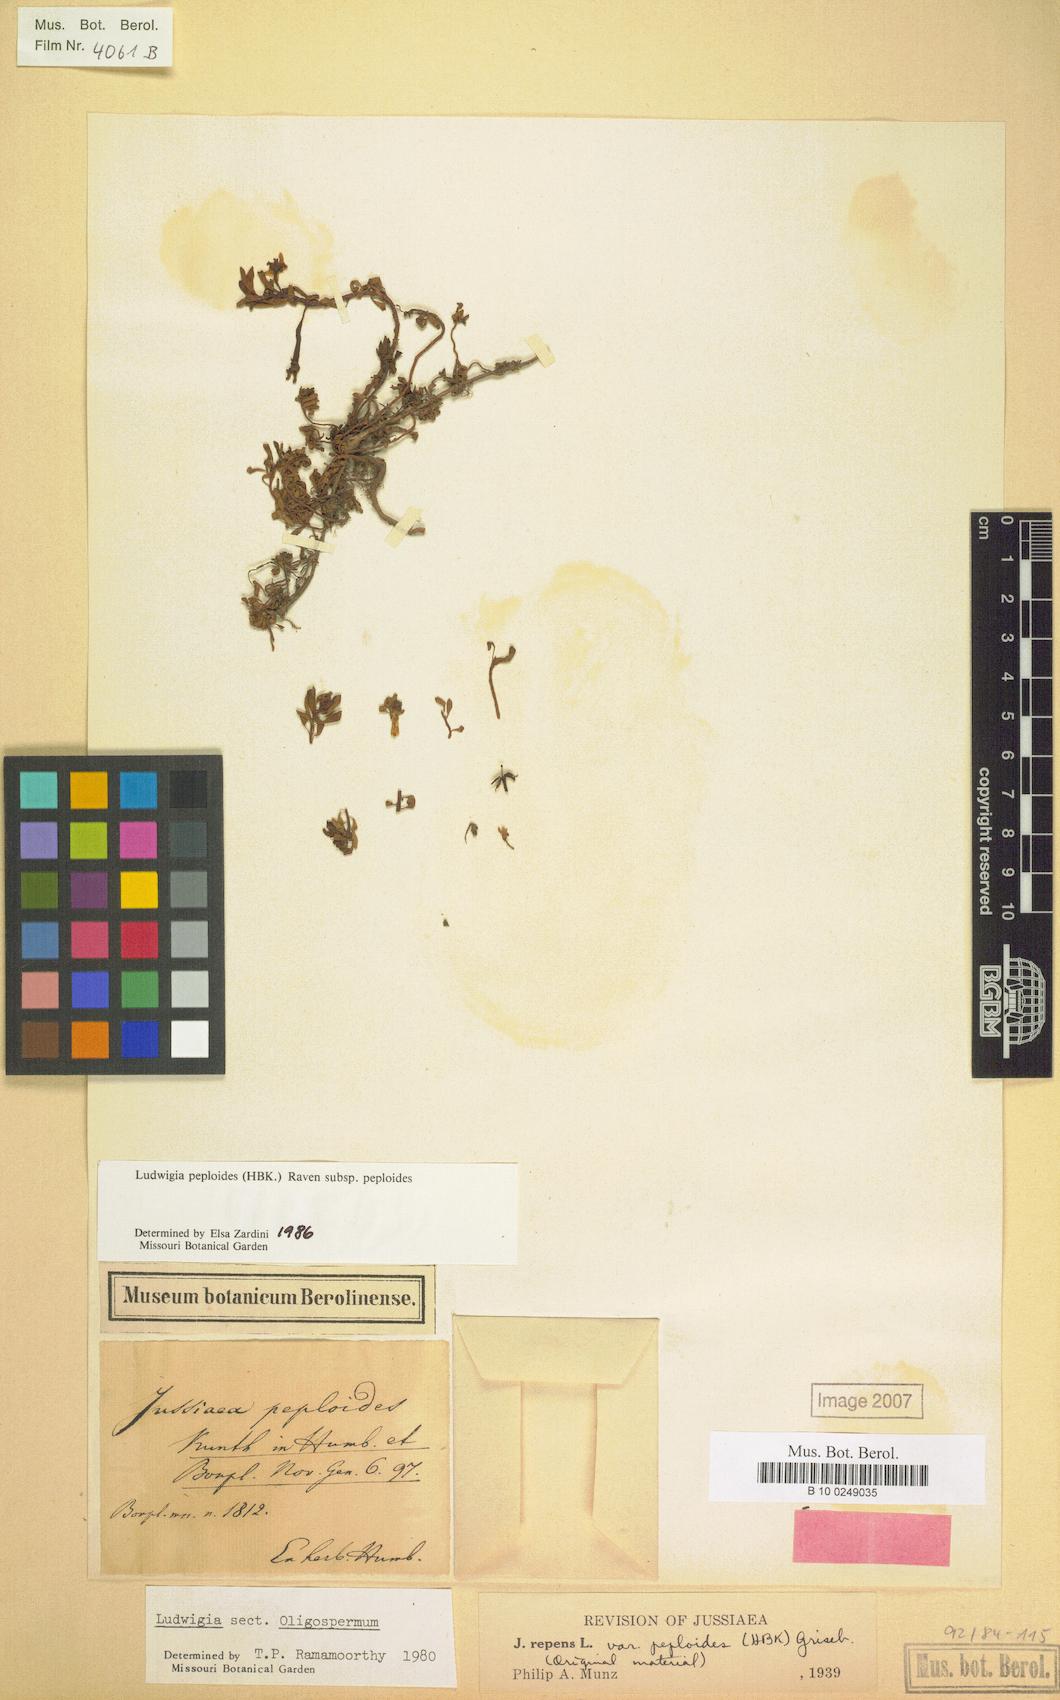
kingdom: Plantae
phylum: Tracheophyta
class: Magnoliopsida
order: Myrtales
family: Onagraceae
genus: Ludwigia
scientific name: Ludwigia peploides
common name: Floating primrose-willow
